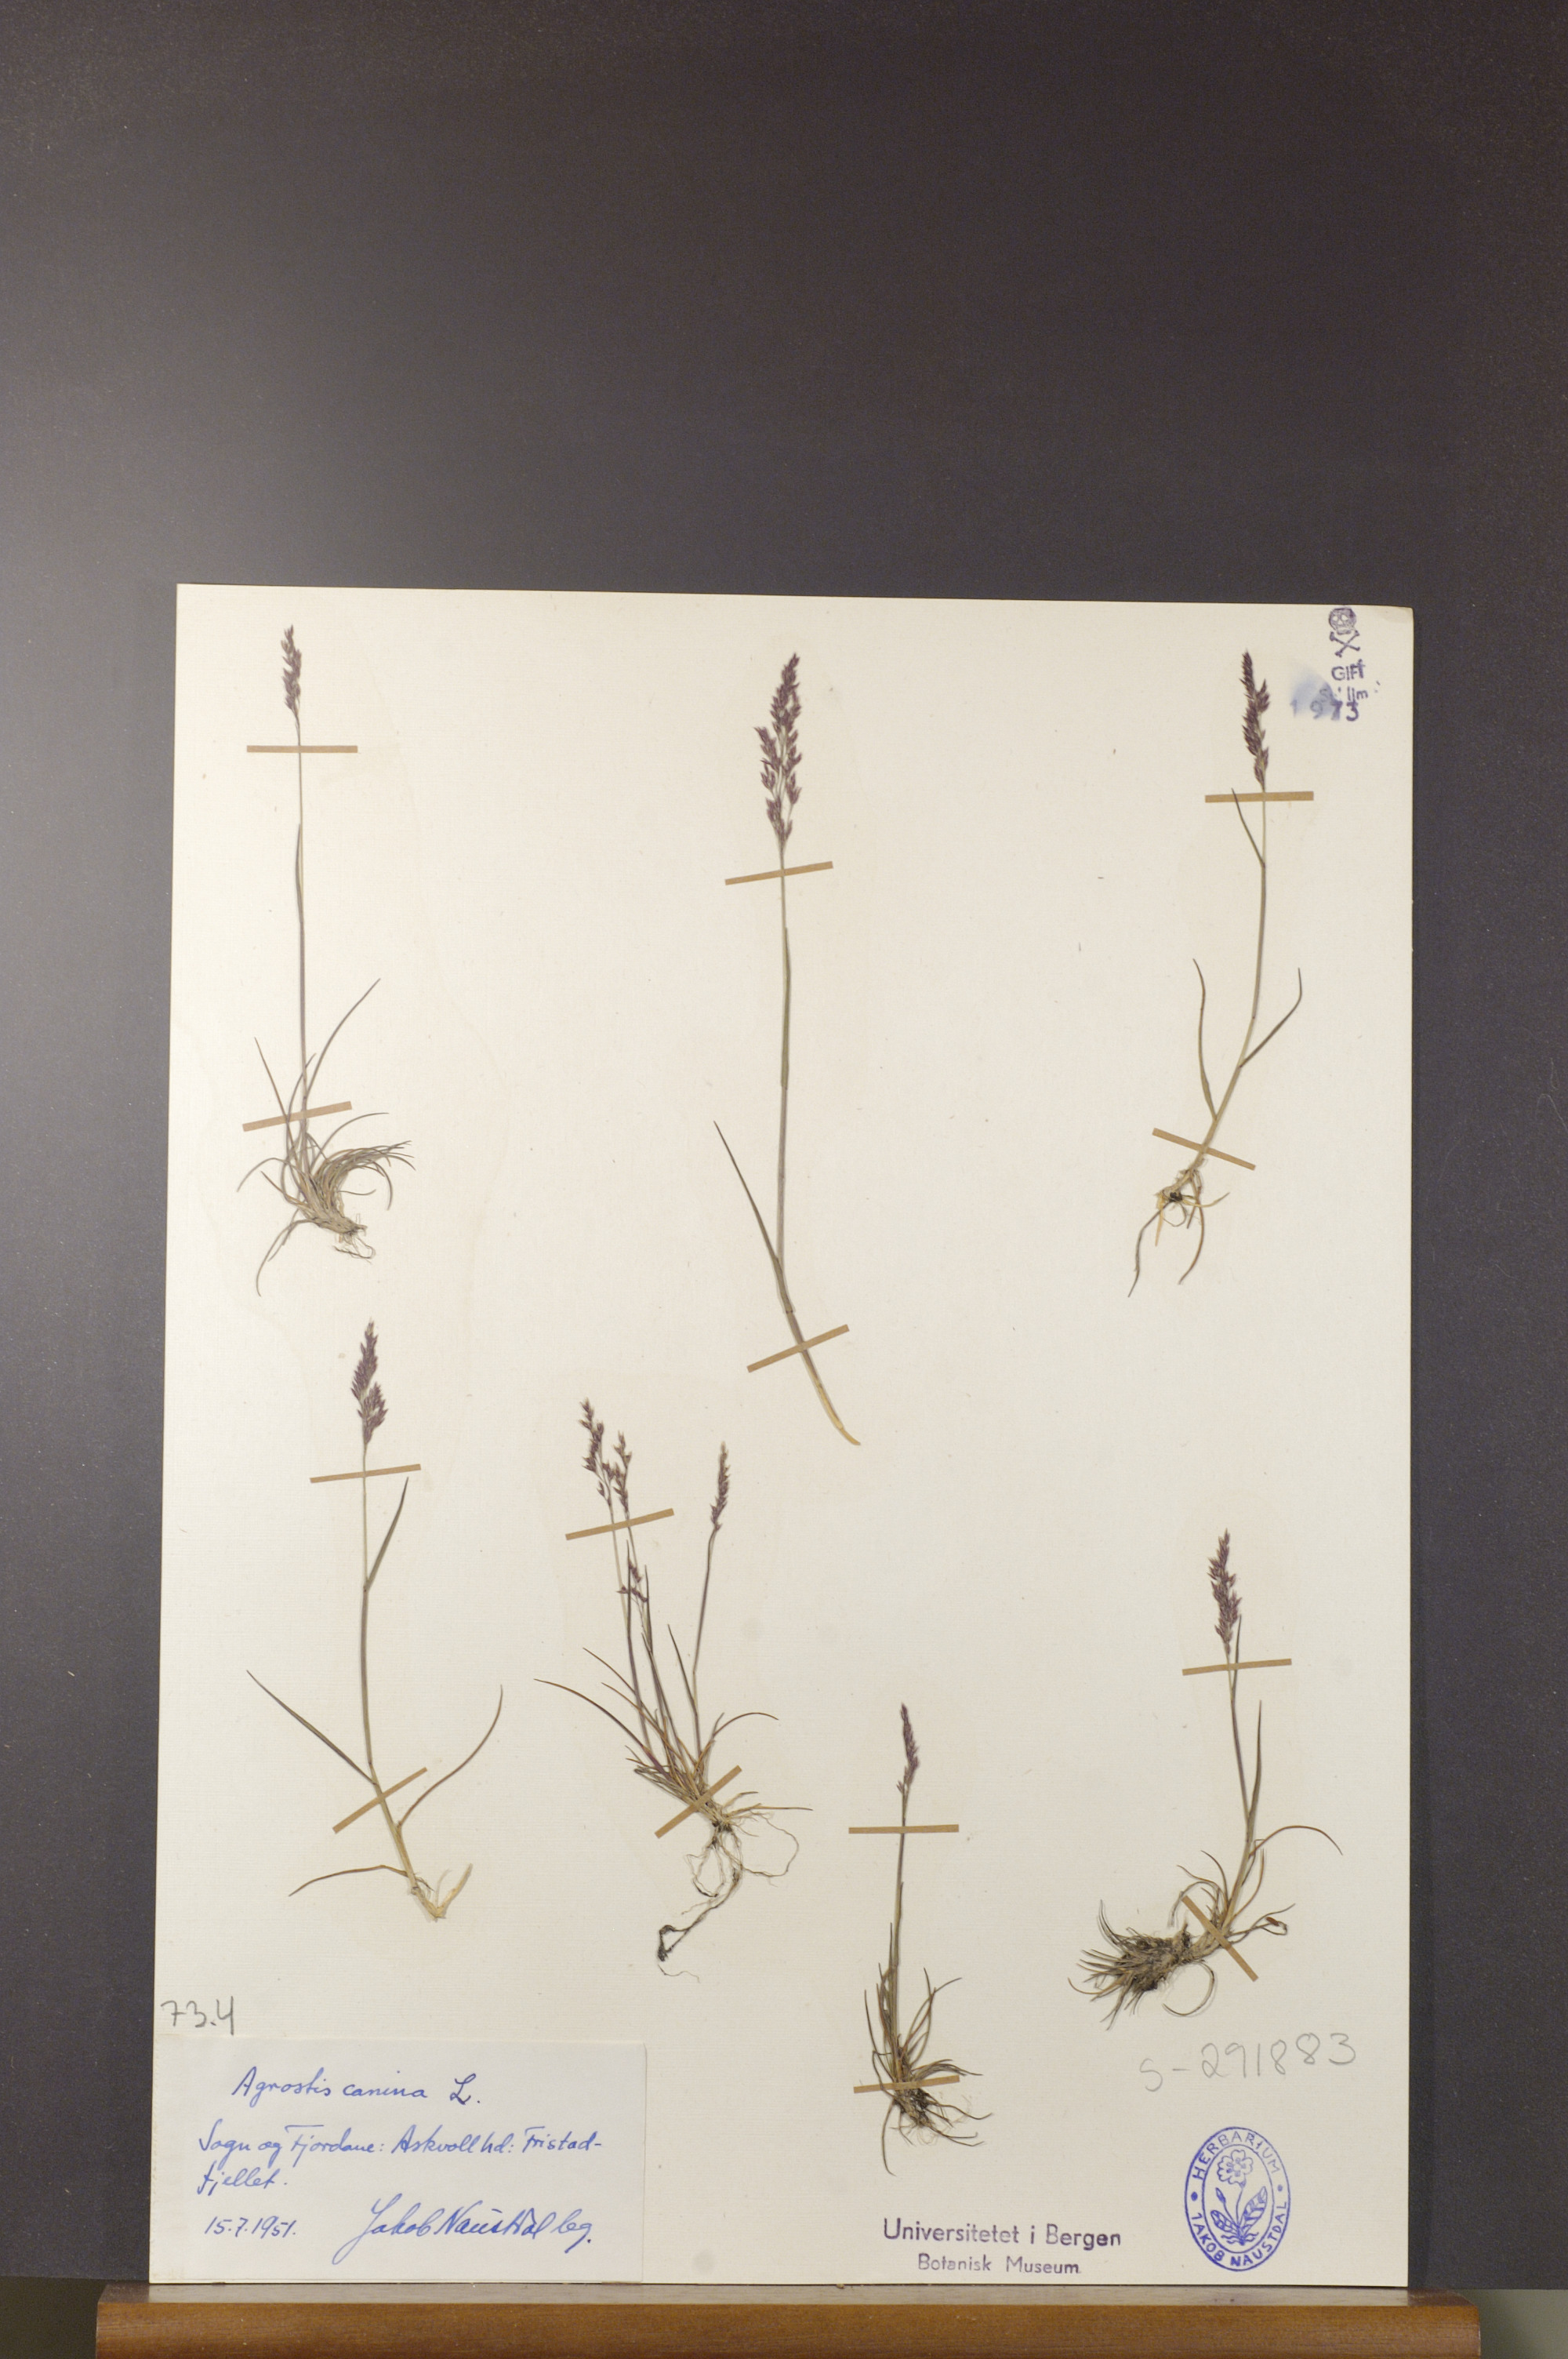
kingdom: Plantae
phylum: Tracheophyta
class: Liliopsida
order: Poales
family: Poaceae
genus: Agrostis
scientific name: Agrostis canina
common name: Velvet bent
